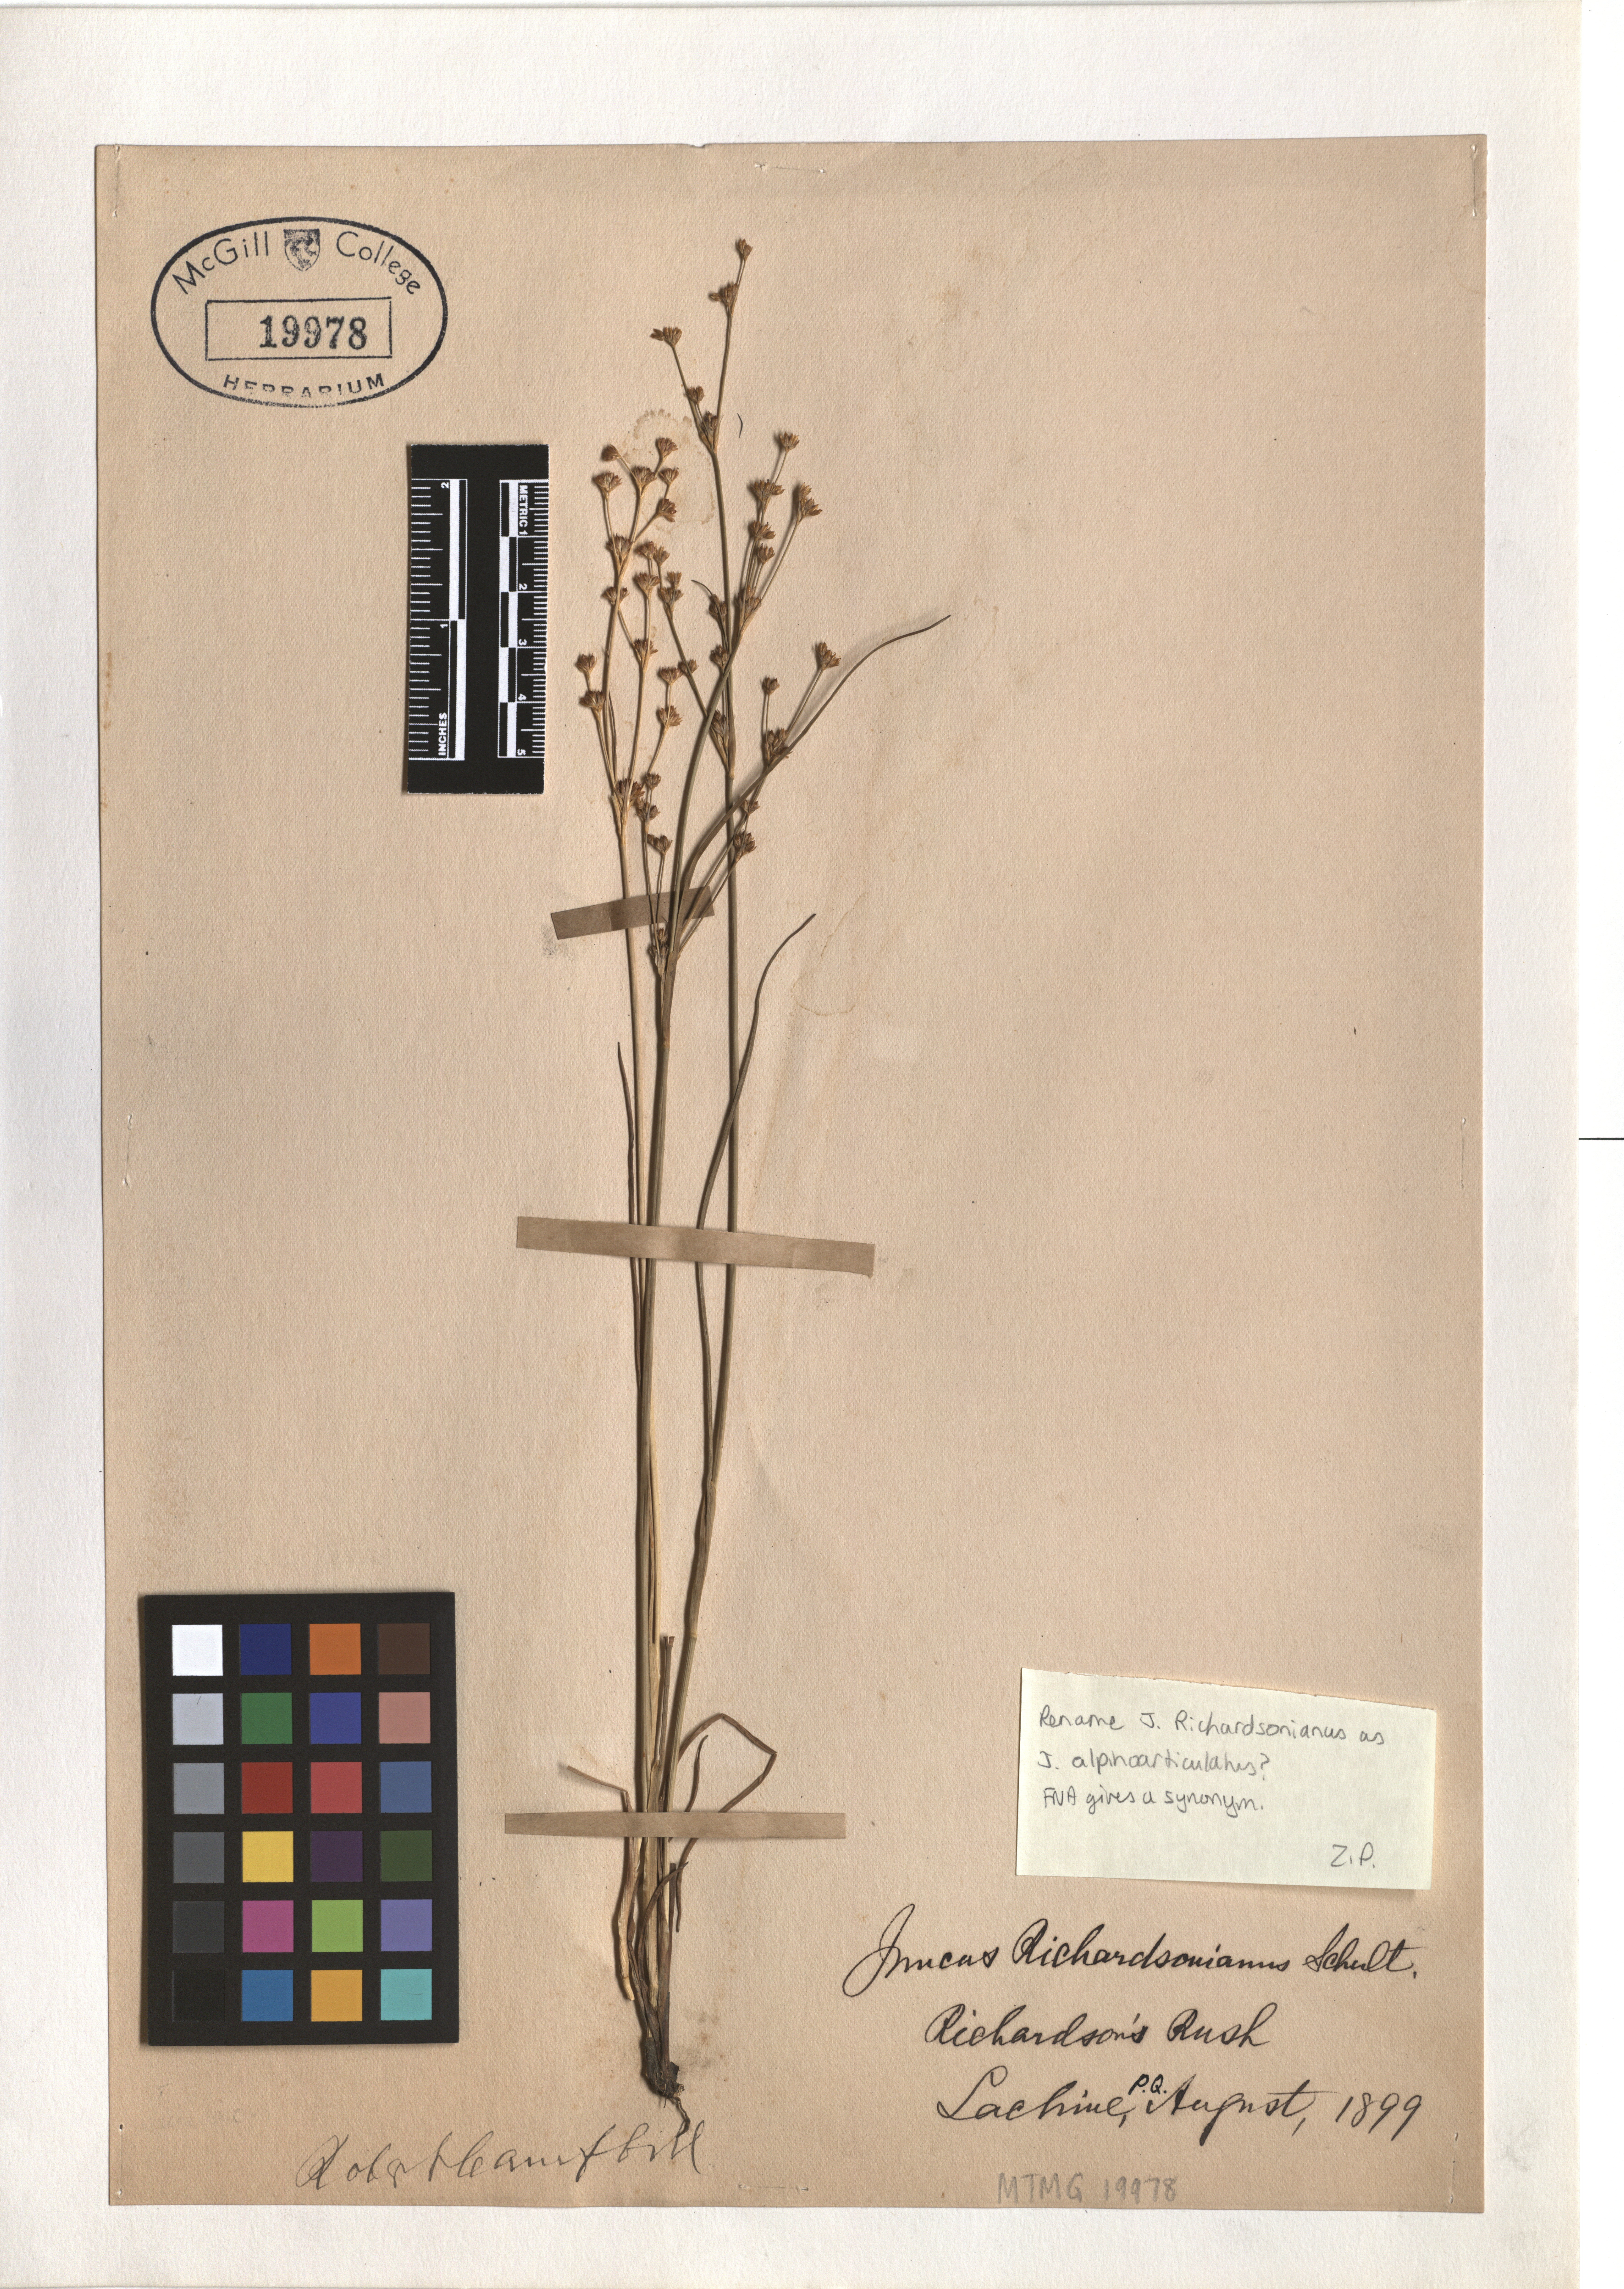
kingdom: Plantae
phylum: Tracheophyta
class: Liliopsida
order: Poales
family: Juncaceae
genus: Juncus
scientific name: Juncus alpinoarticulatus
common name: Alpine rush
